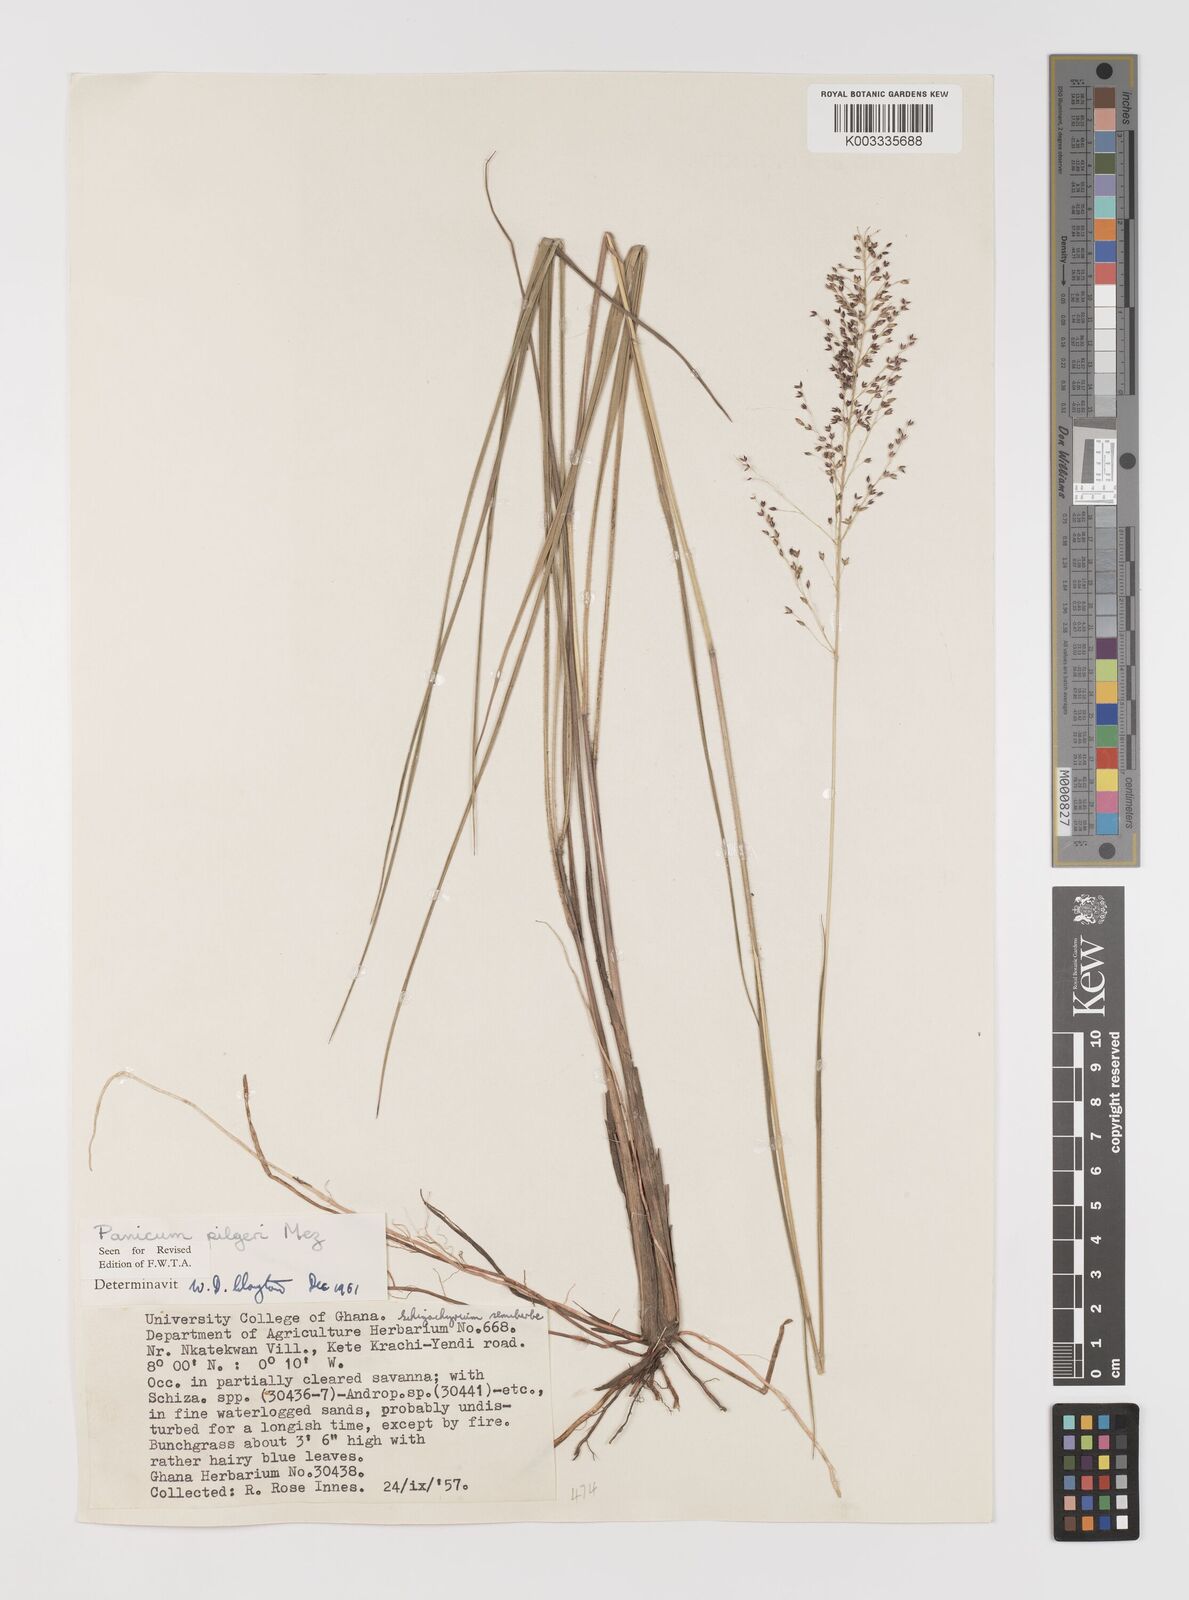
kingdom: Plantae
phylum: Tracheophyta
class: Liliopsida
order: Poales
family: Poaceae
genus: Panicum
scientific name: Panicum
